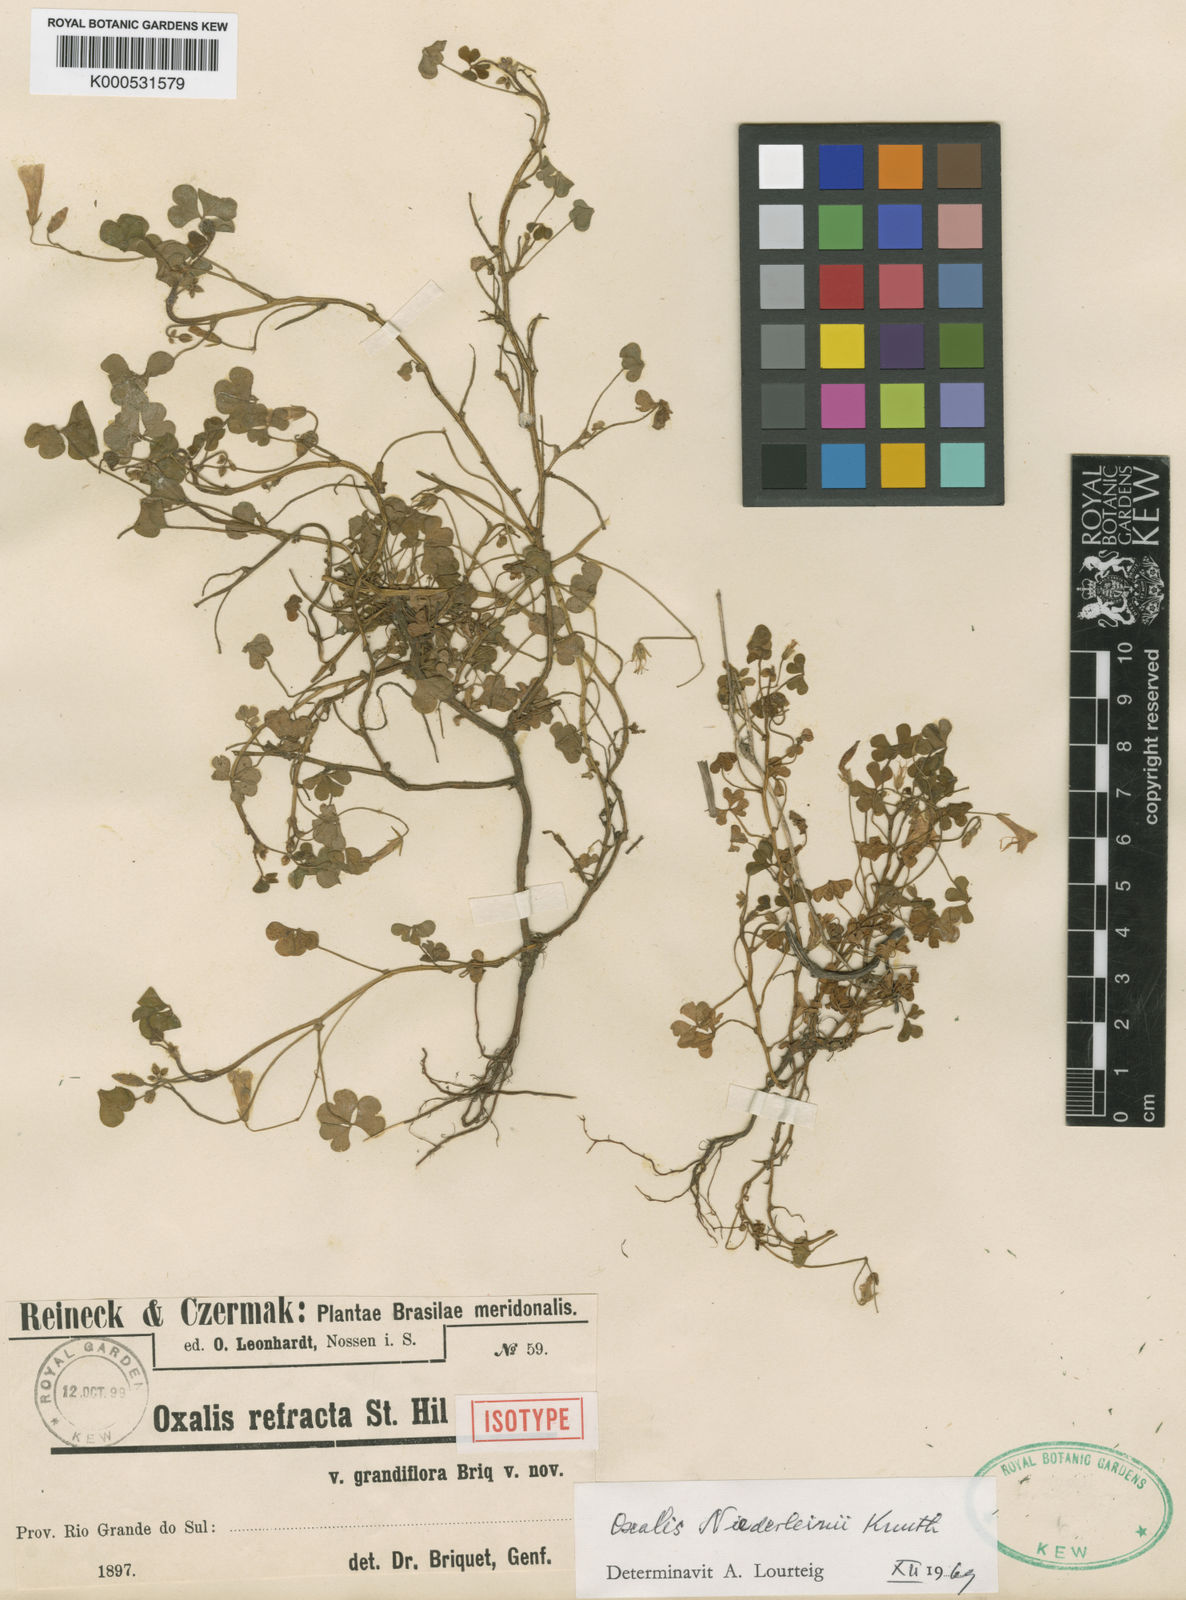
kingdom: Plantae
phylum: Tracheophyta
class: Magnoliopsida
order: Oxalidales
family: Oxalidaceae
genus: Oxalis
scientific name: Oxalis niederleinii
